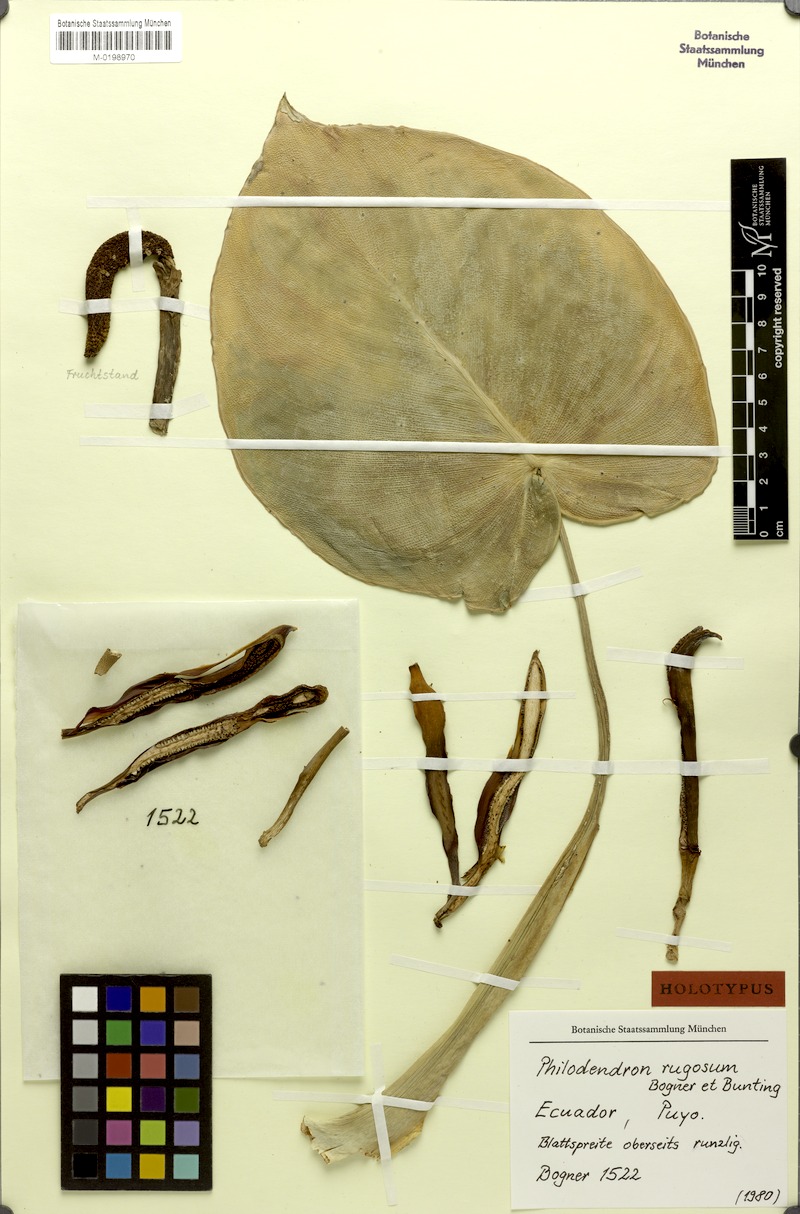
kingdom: Plantae
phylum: Tracheophyta
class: Liliopsida
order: Alismatales
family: Araceae
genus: Philodendron
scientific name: Philodendron rugosum
